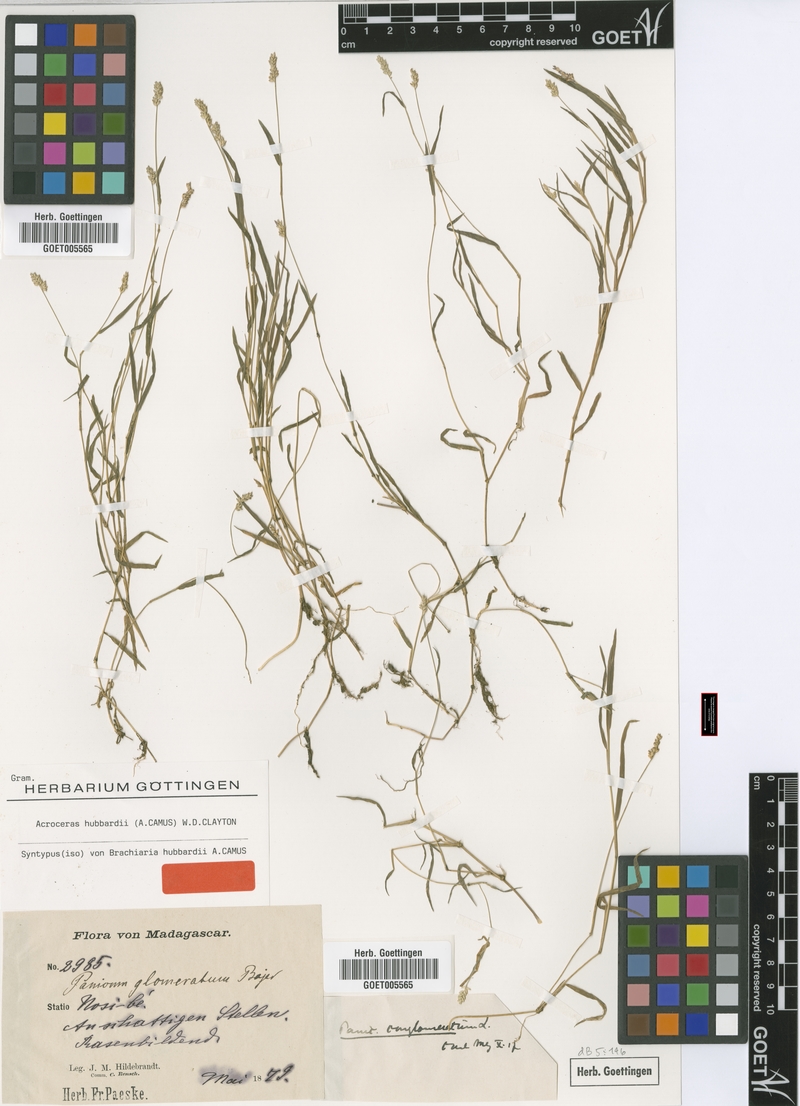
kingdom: Plantae
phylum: Tracheophyta
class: Liliopsida
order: Poales
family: Poaceae
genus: Acroceras
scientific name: Acroceras hubbardii
